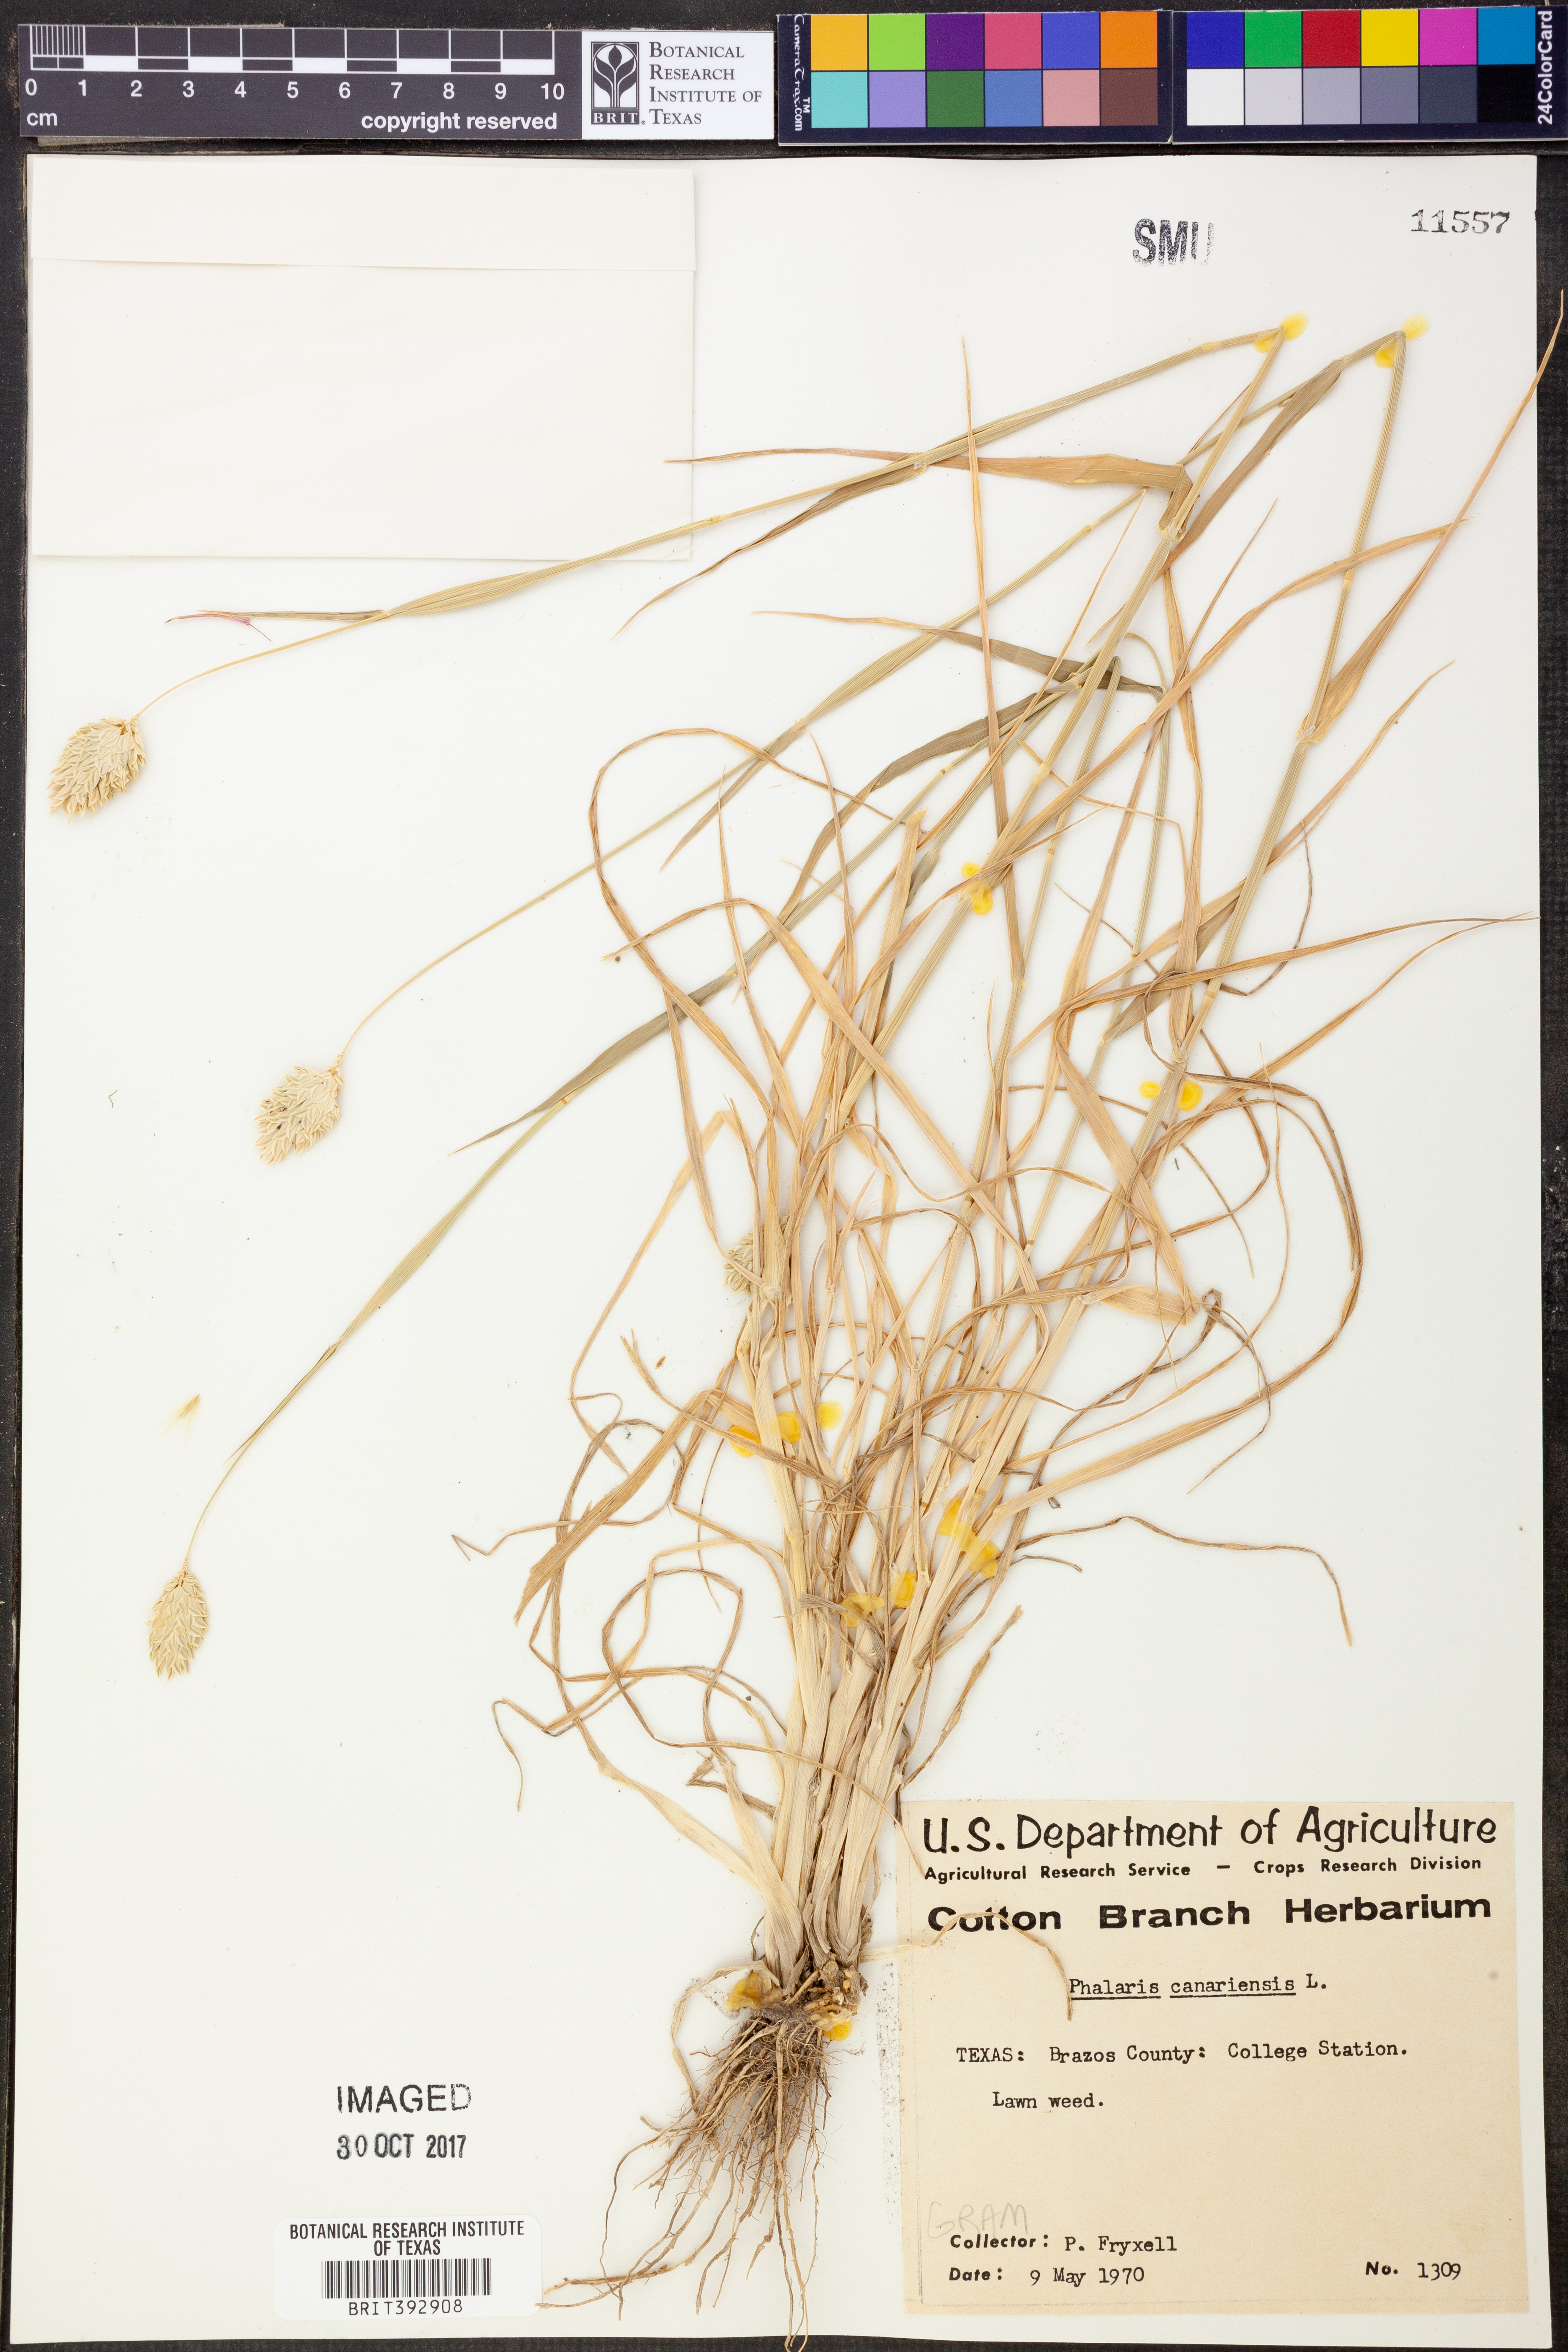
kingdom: Plantae
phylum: Tracheophyta
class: Liliopsida
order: Poales
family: Poaceae
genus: Phalaris
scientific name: Phalaris canariensis
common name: Annual canarygrass
